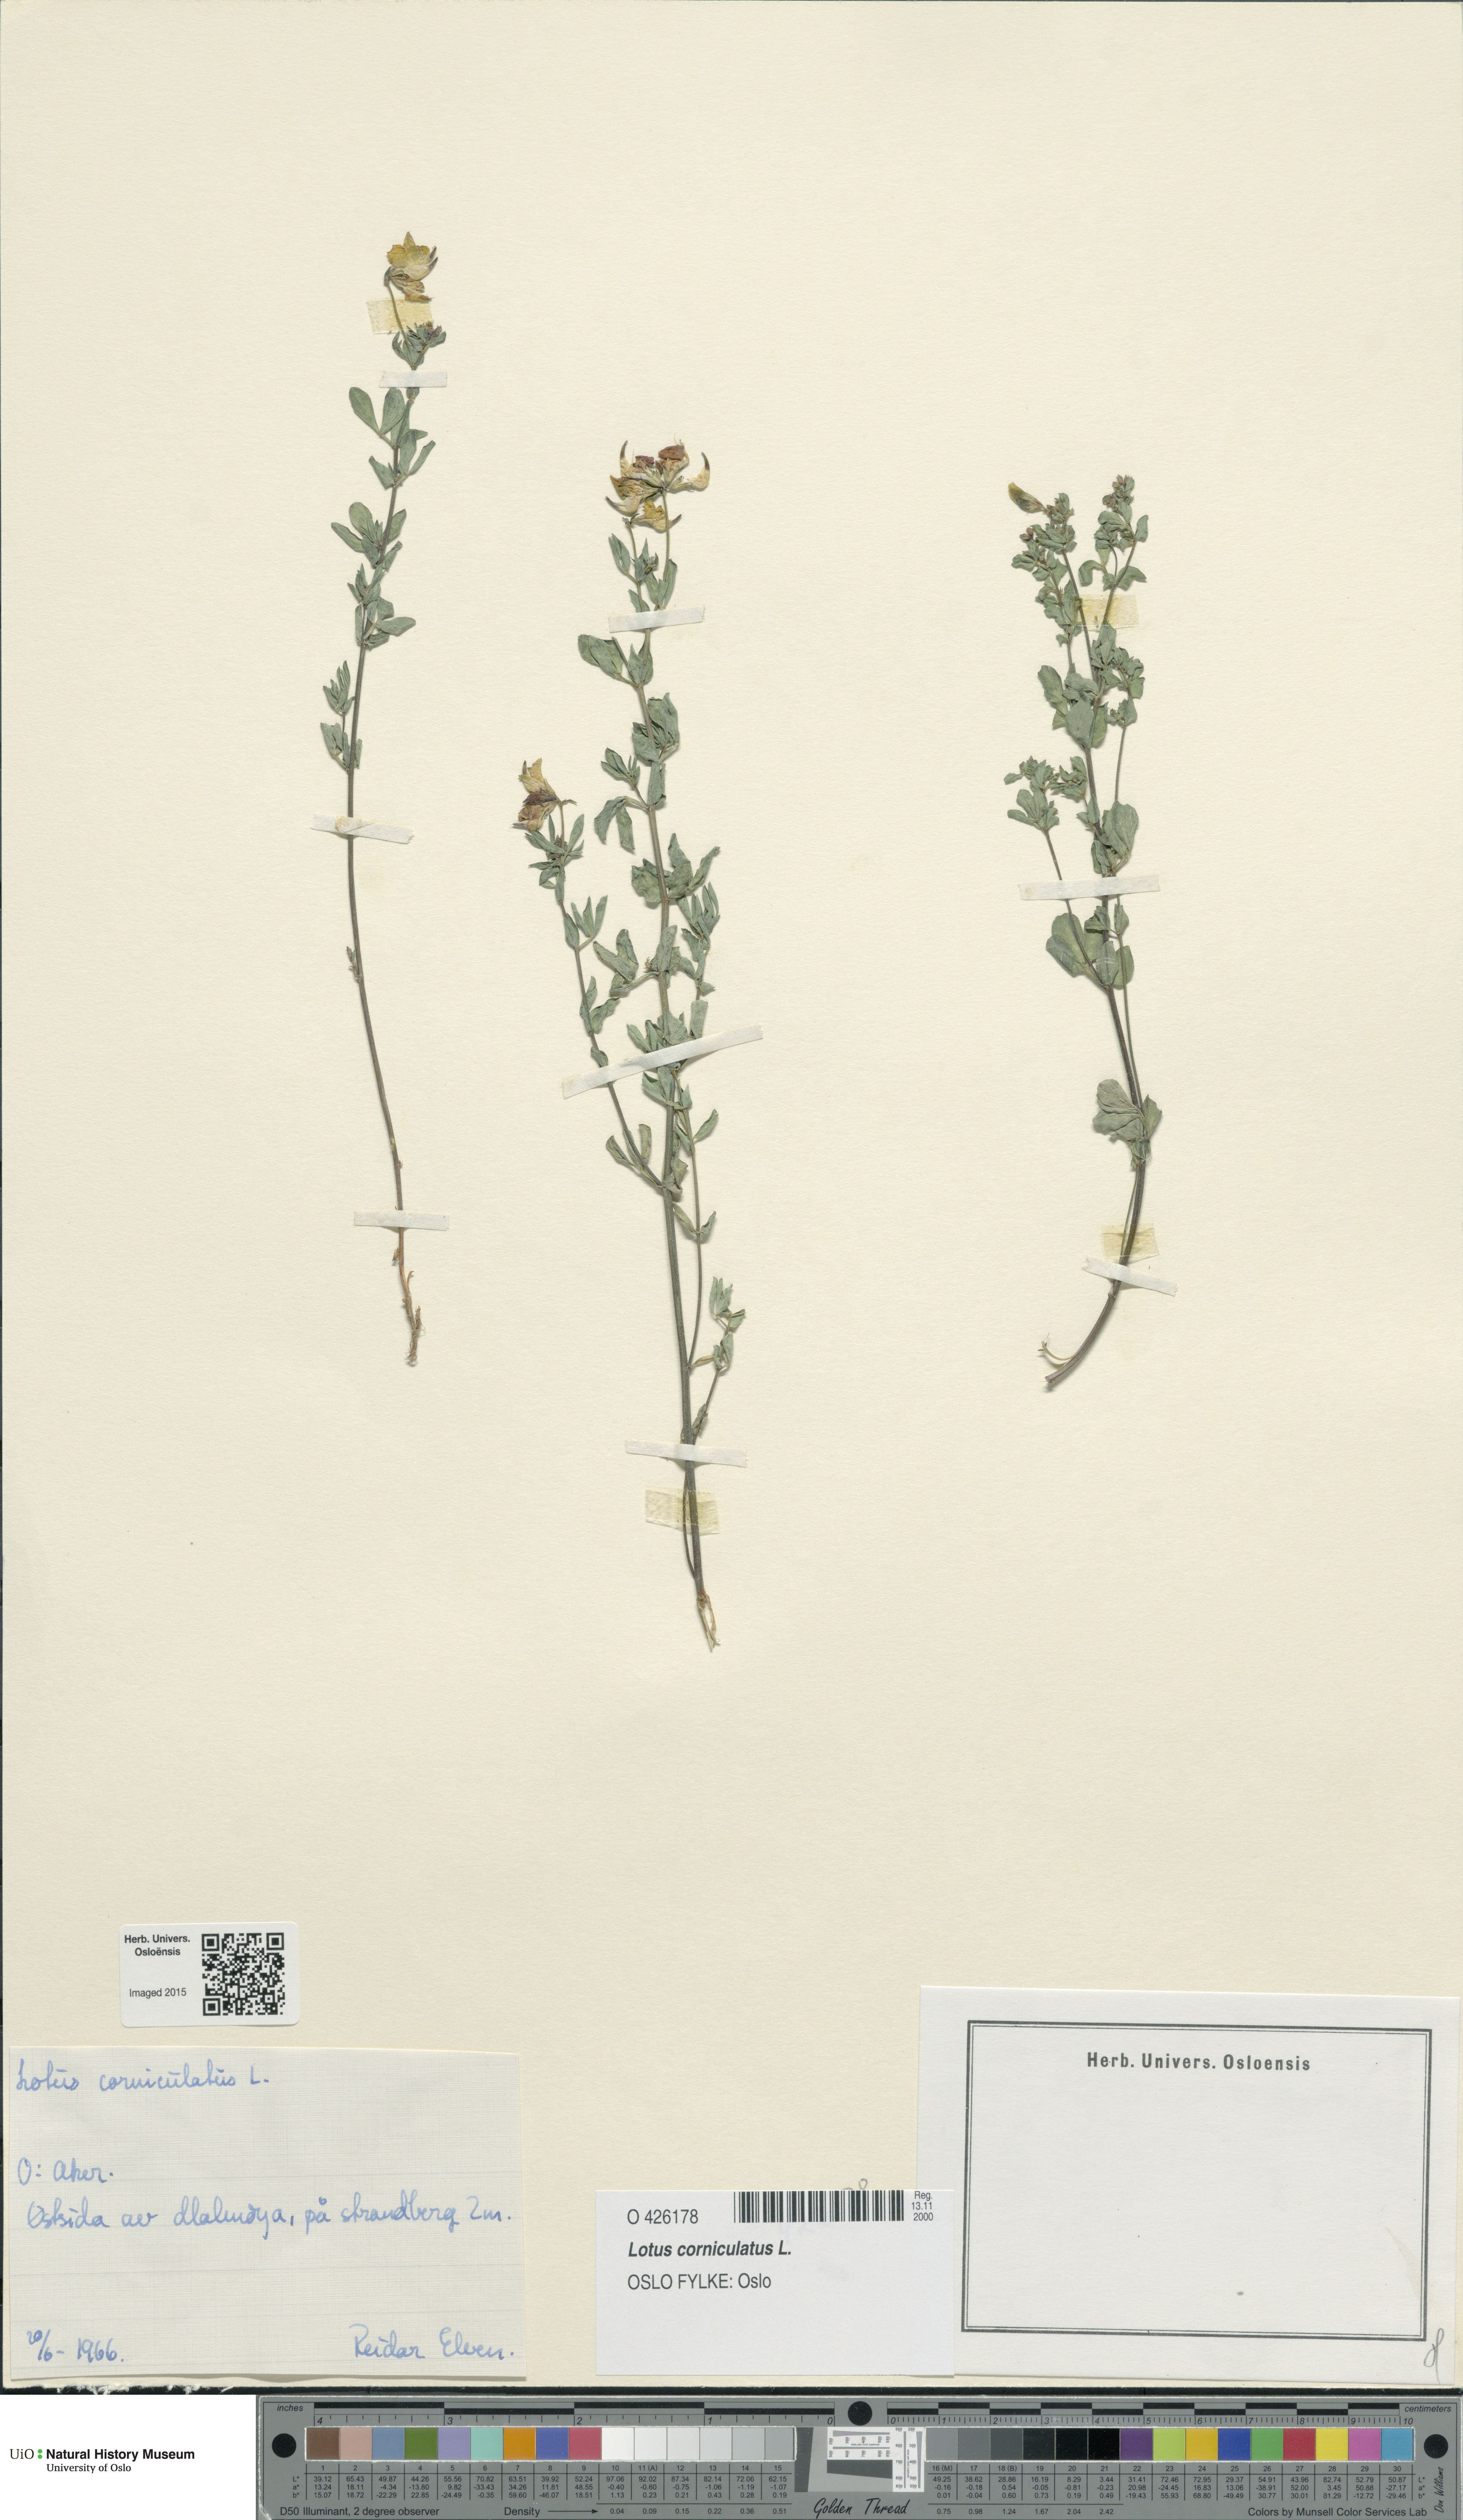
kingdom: Plantae
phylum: Tracheophyta
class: Magnoliopsida
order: Fabales
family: Fabaceae
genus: Lotus
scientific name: Lotus corniculatus
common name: Common bird's-foot-trefoil
